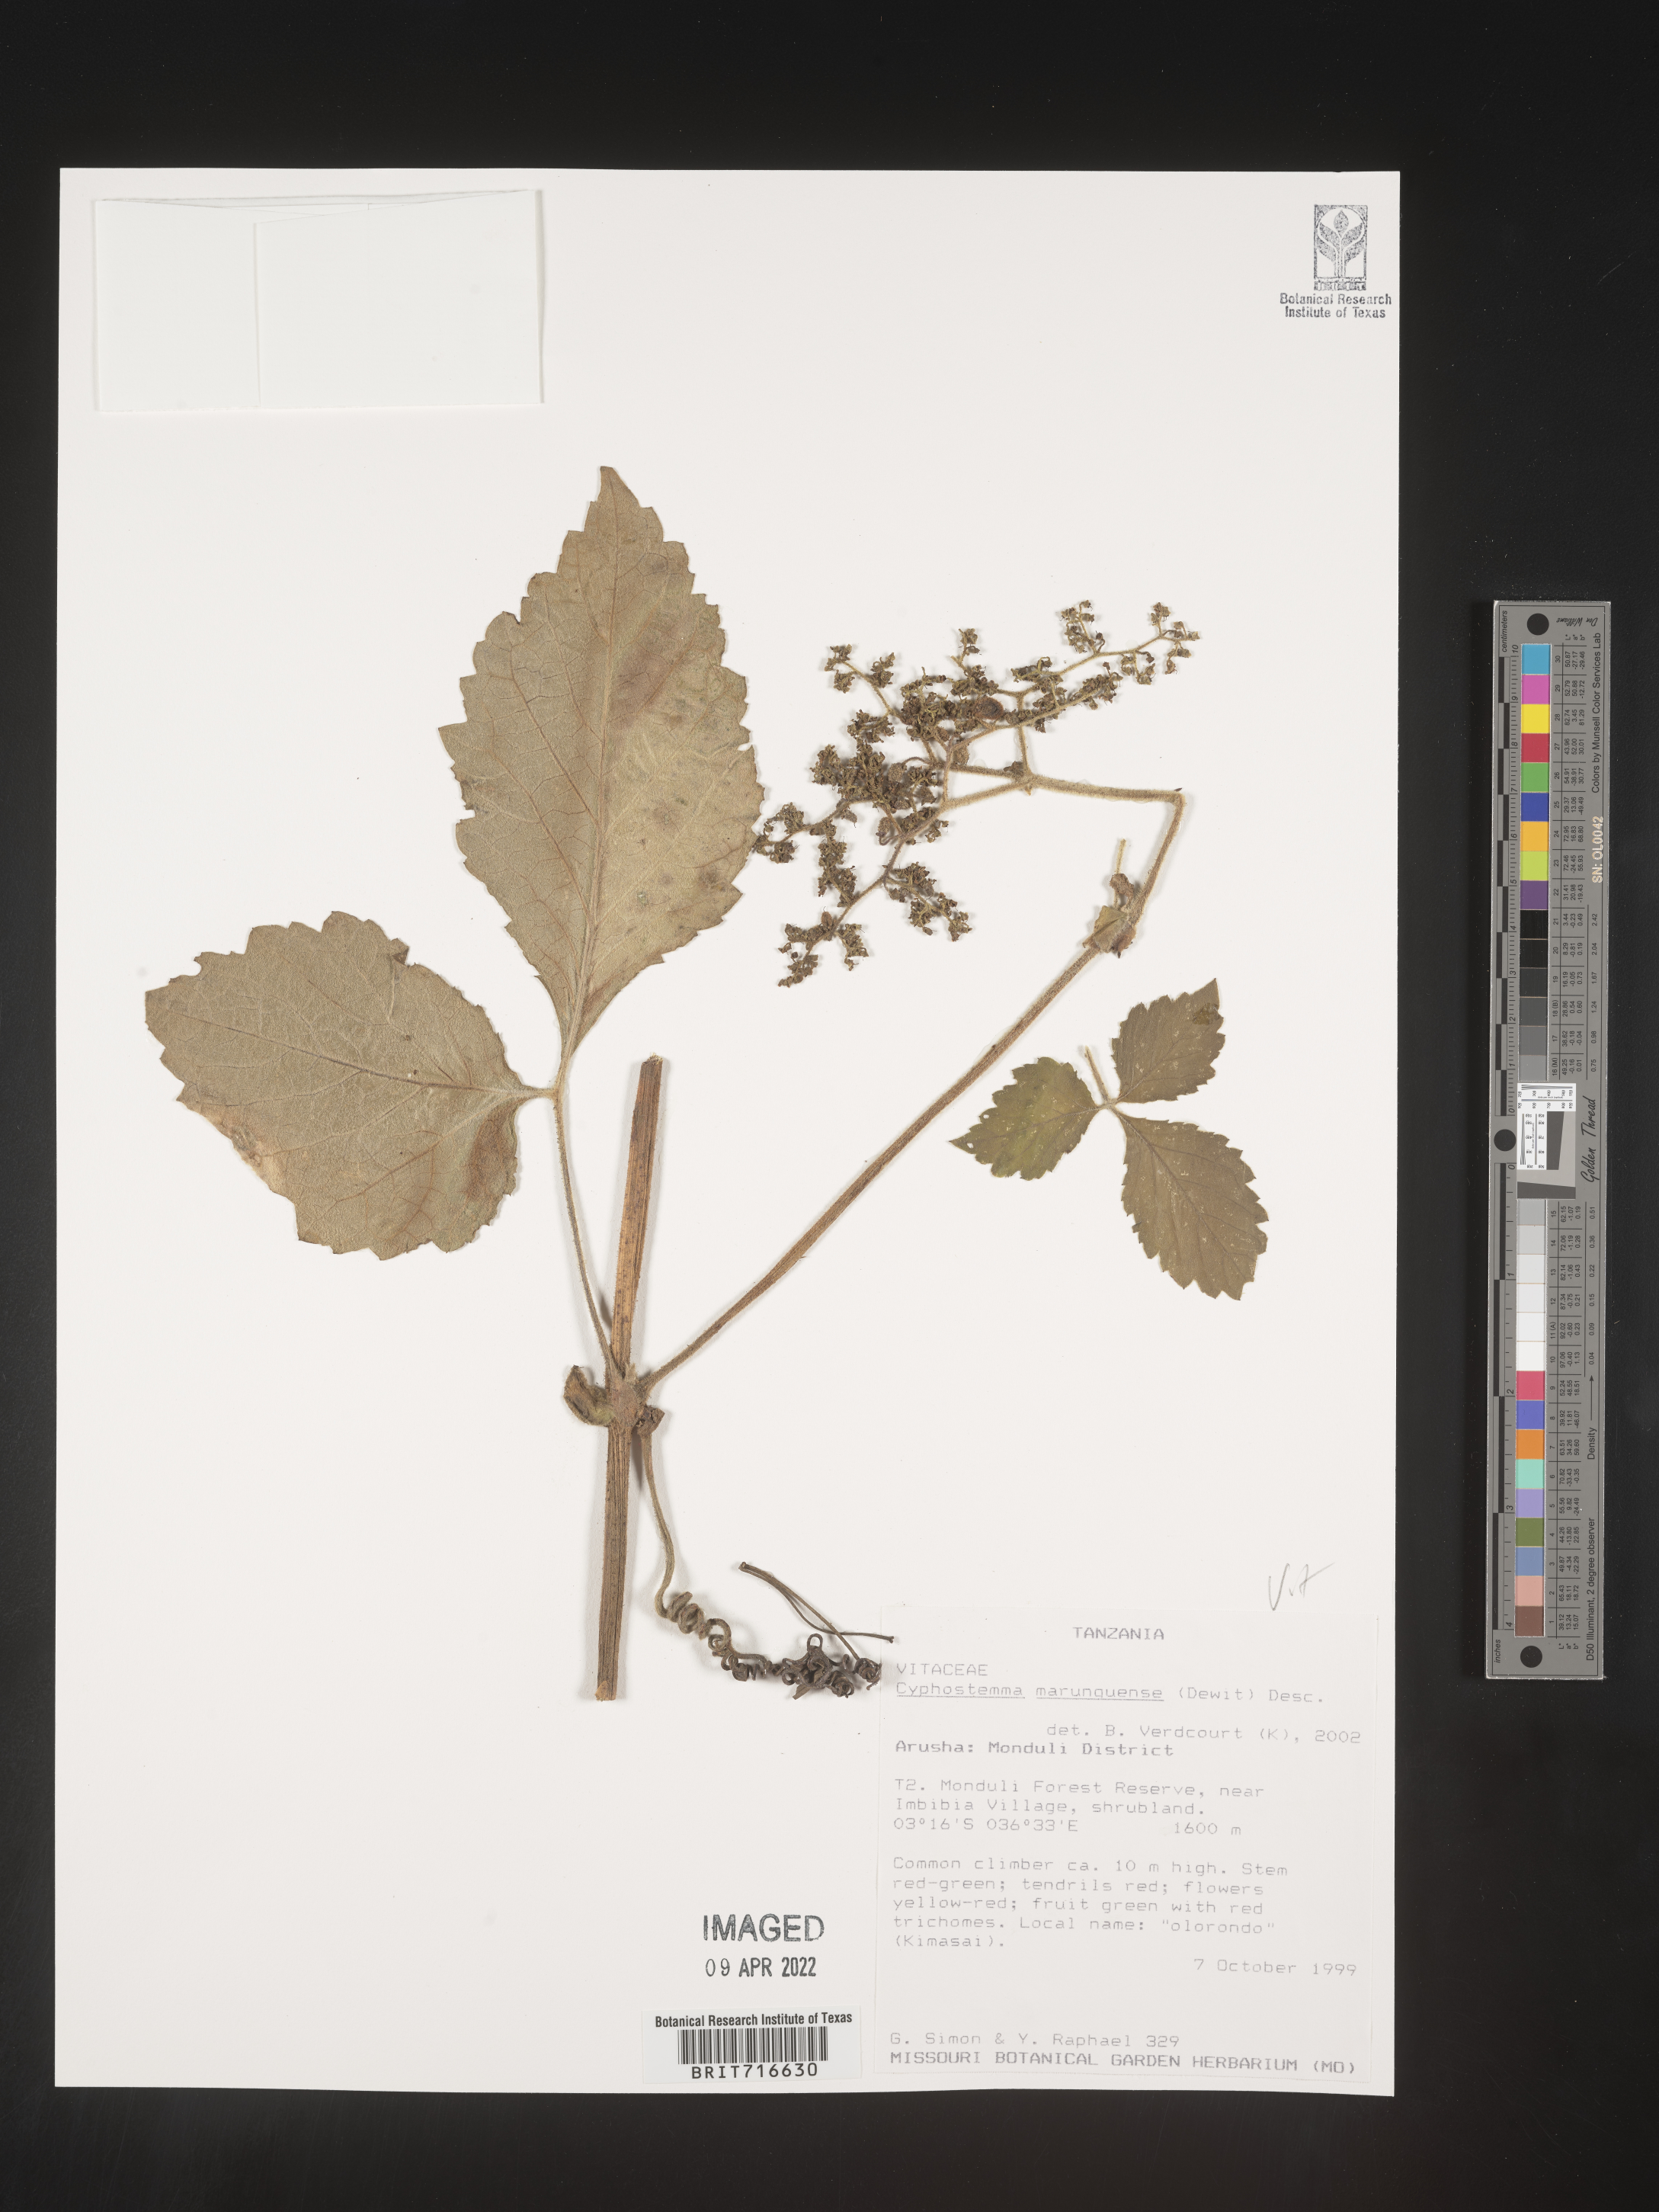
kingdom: Plantae
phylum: Tracheophyta
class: Magnoliopsida
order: Vitales
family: Vitaceae
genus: Cyphostemma
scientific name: Cyphostemma
